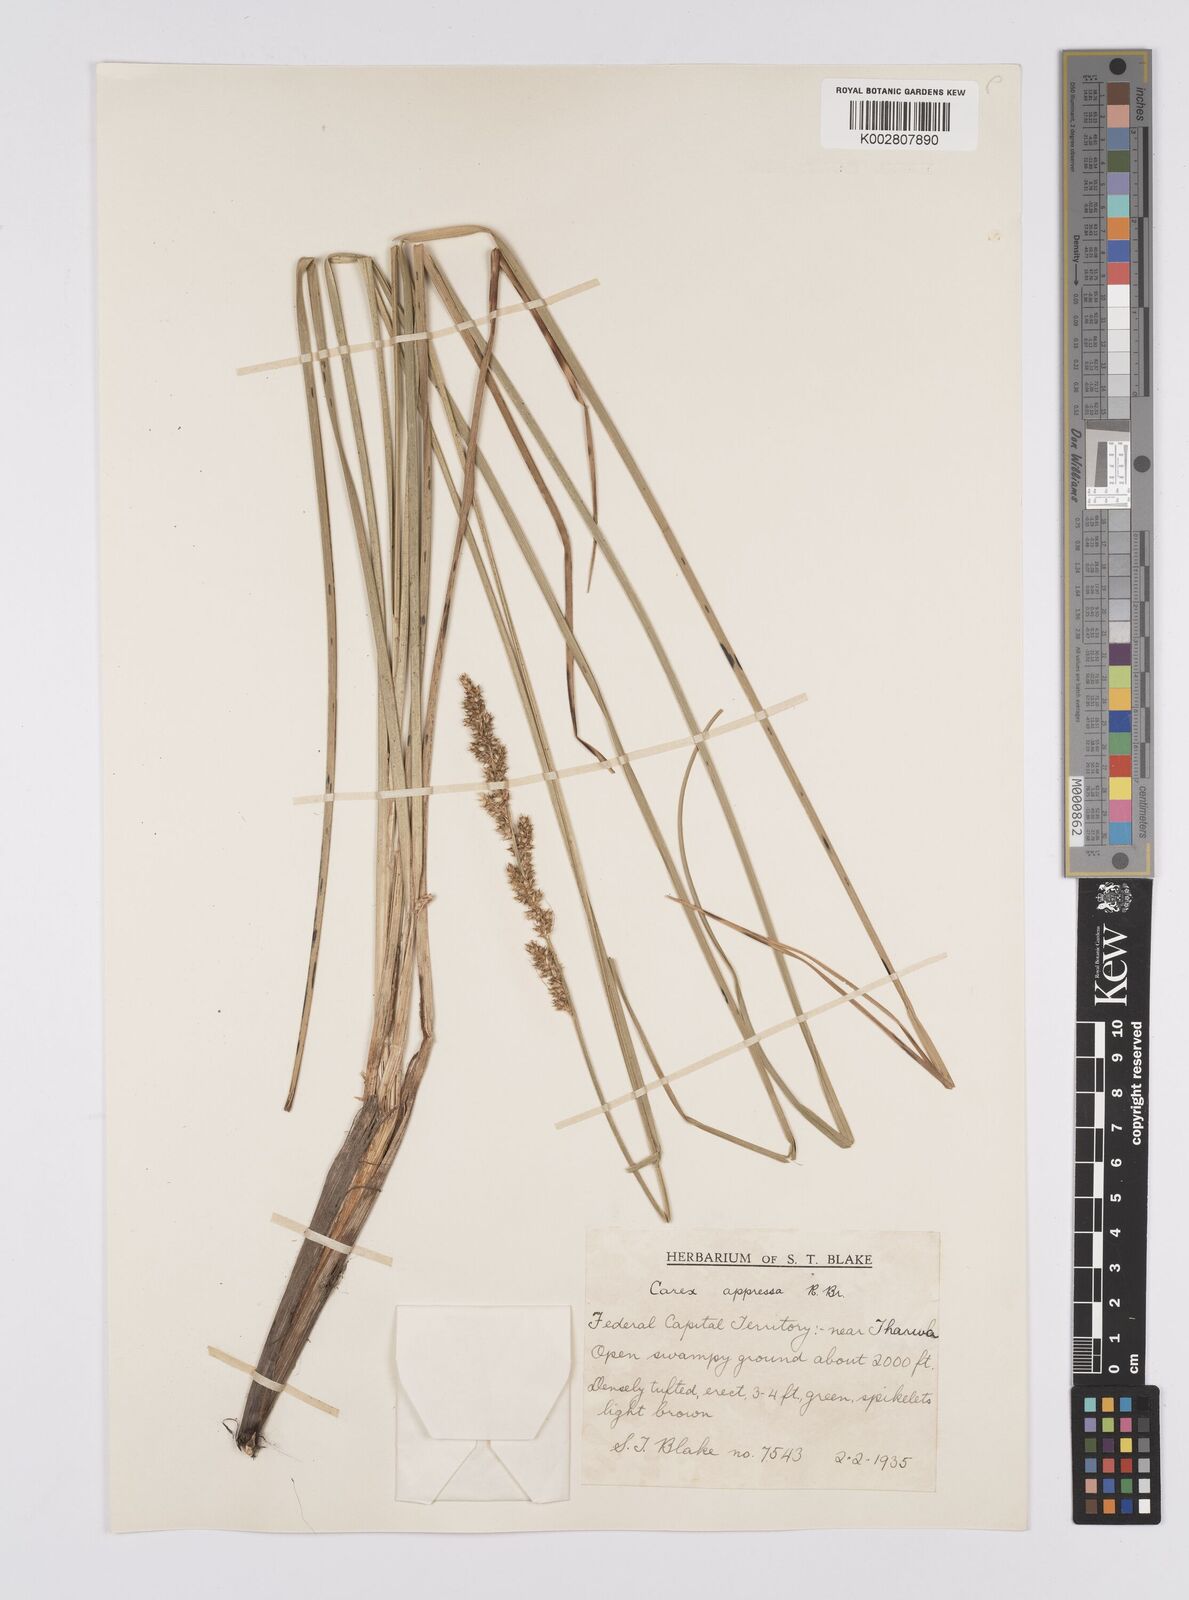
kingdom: Plantae
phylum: Tracheophyta
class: Liliopsida
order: Poales
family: Cyperaceae
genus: Carex
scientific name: Carex appressa
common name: Tussock sedge
